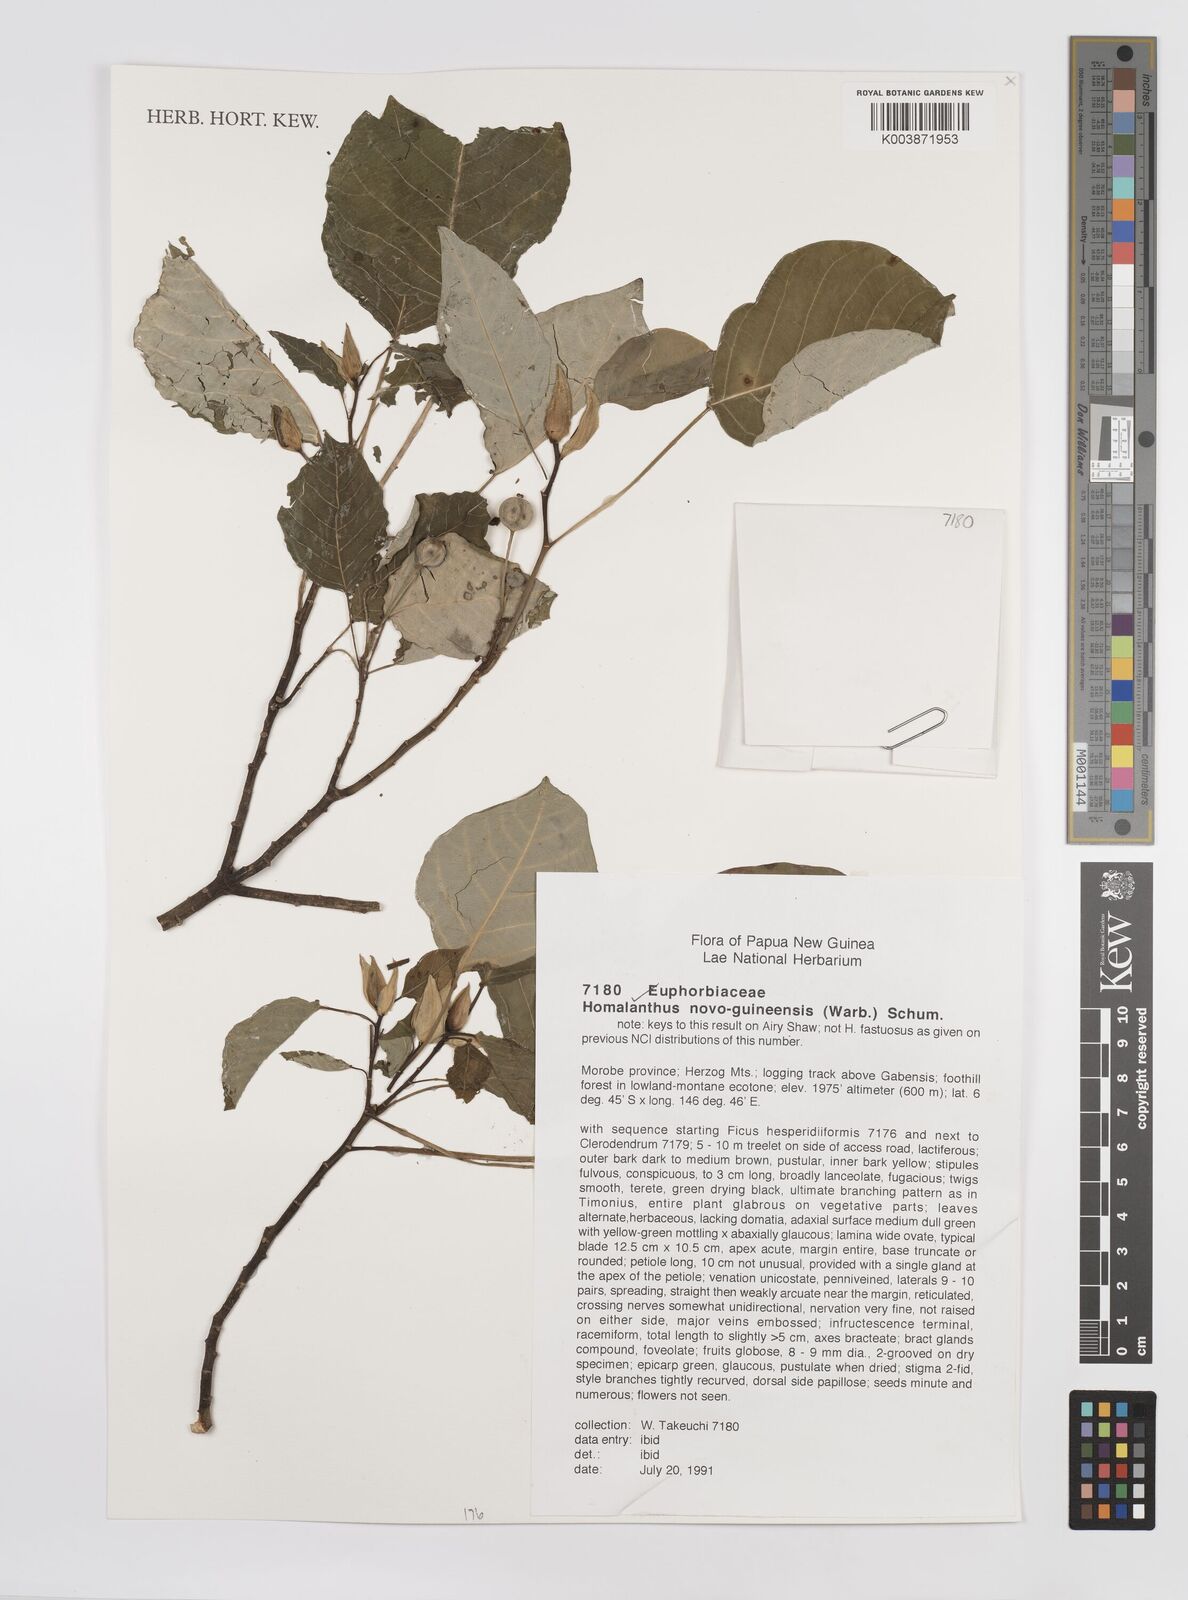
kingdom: Plantae
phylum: Tracheophyta
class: Magnoliopsida
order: Malpighiales
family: Euphorbiaceae
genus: Homalanthus
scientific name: Homalanthus novoguineensis
